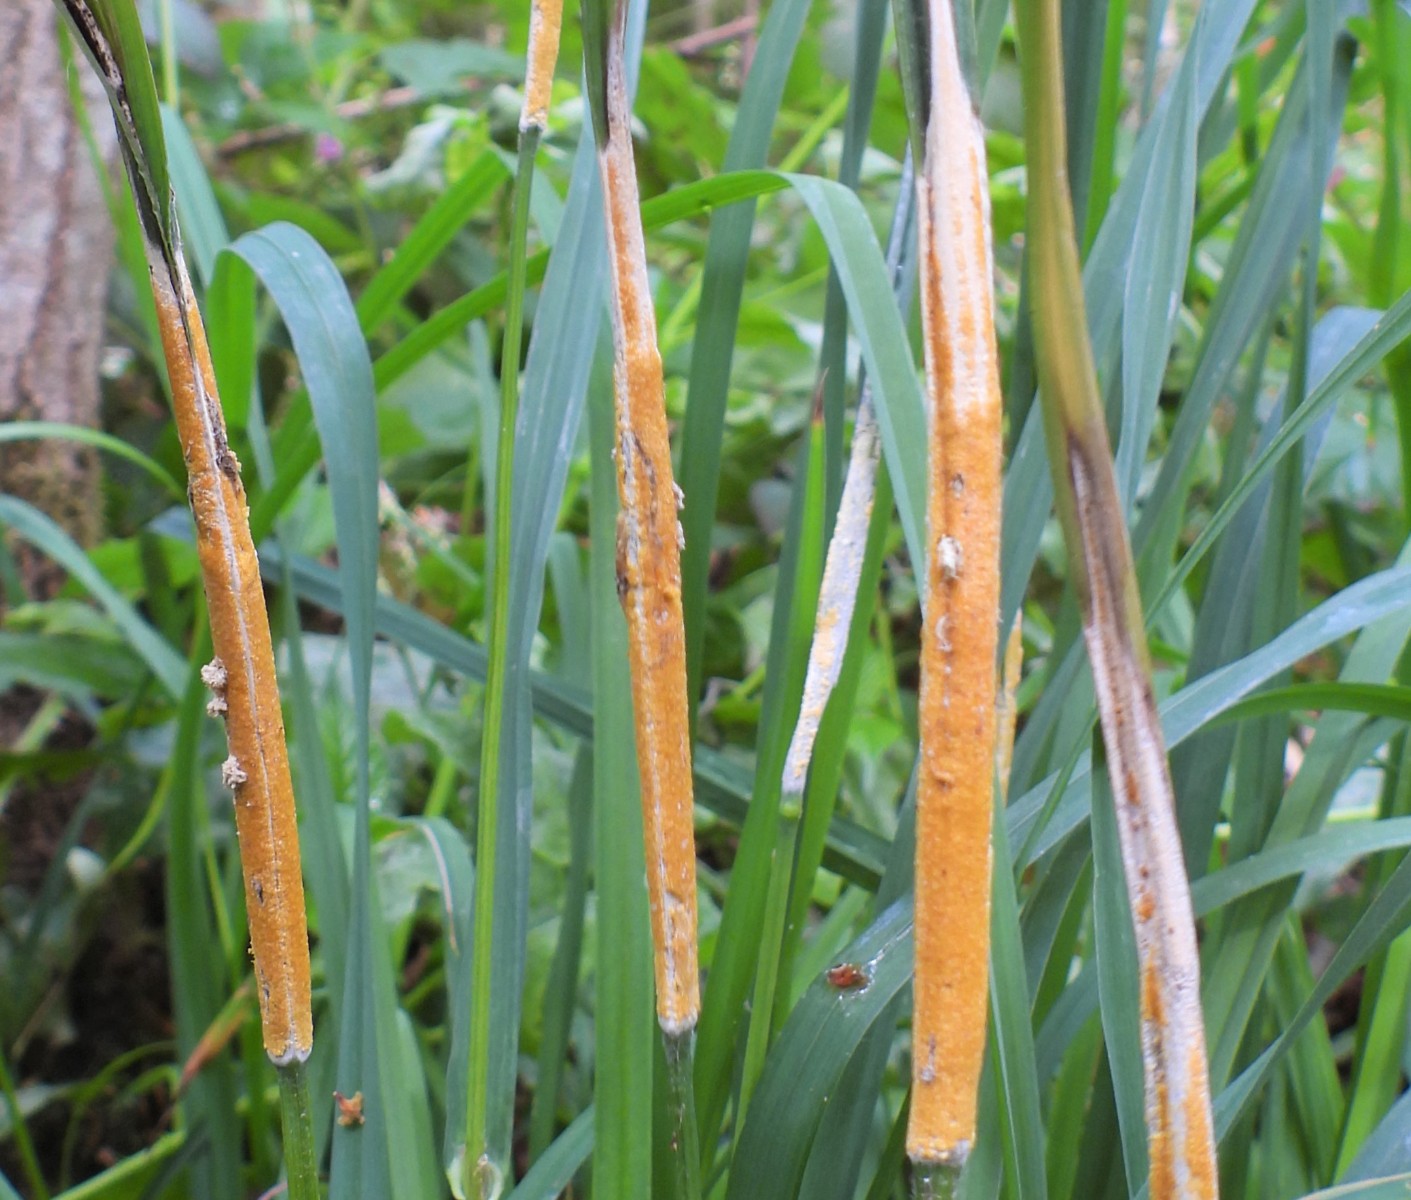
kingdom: Fungi
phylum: Ascomycota
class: Sordariomycetes
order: Hypocreales
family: Clavicipitaceae
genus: Epichloe
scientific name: Epichloe typhina
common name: almindelig kernerør
